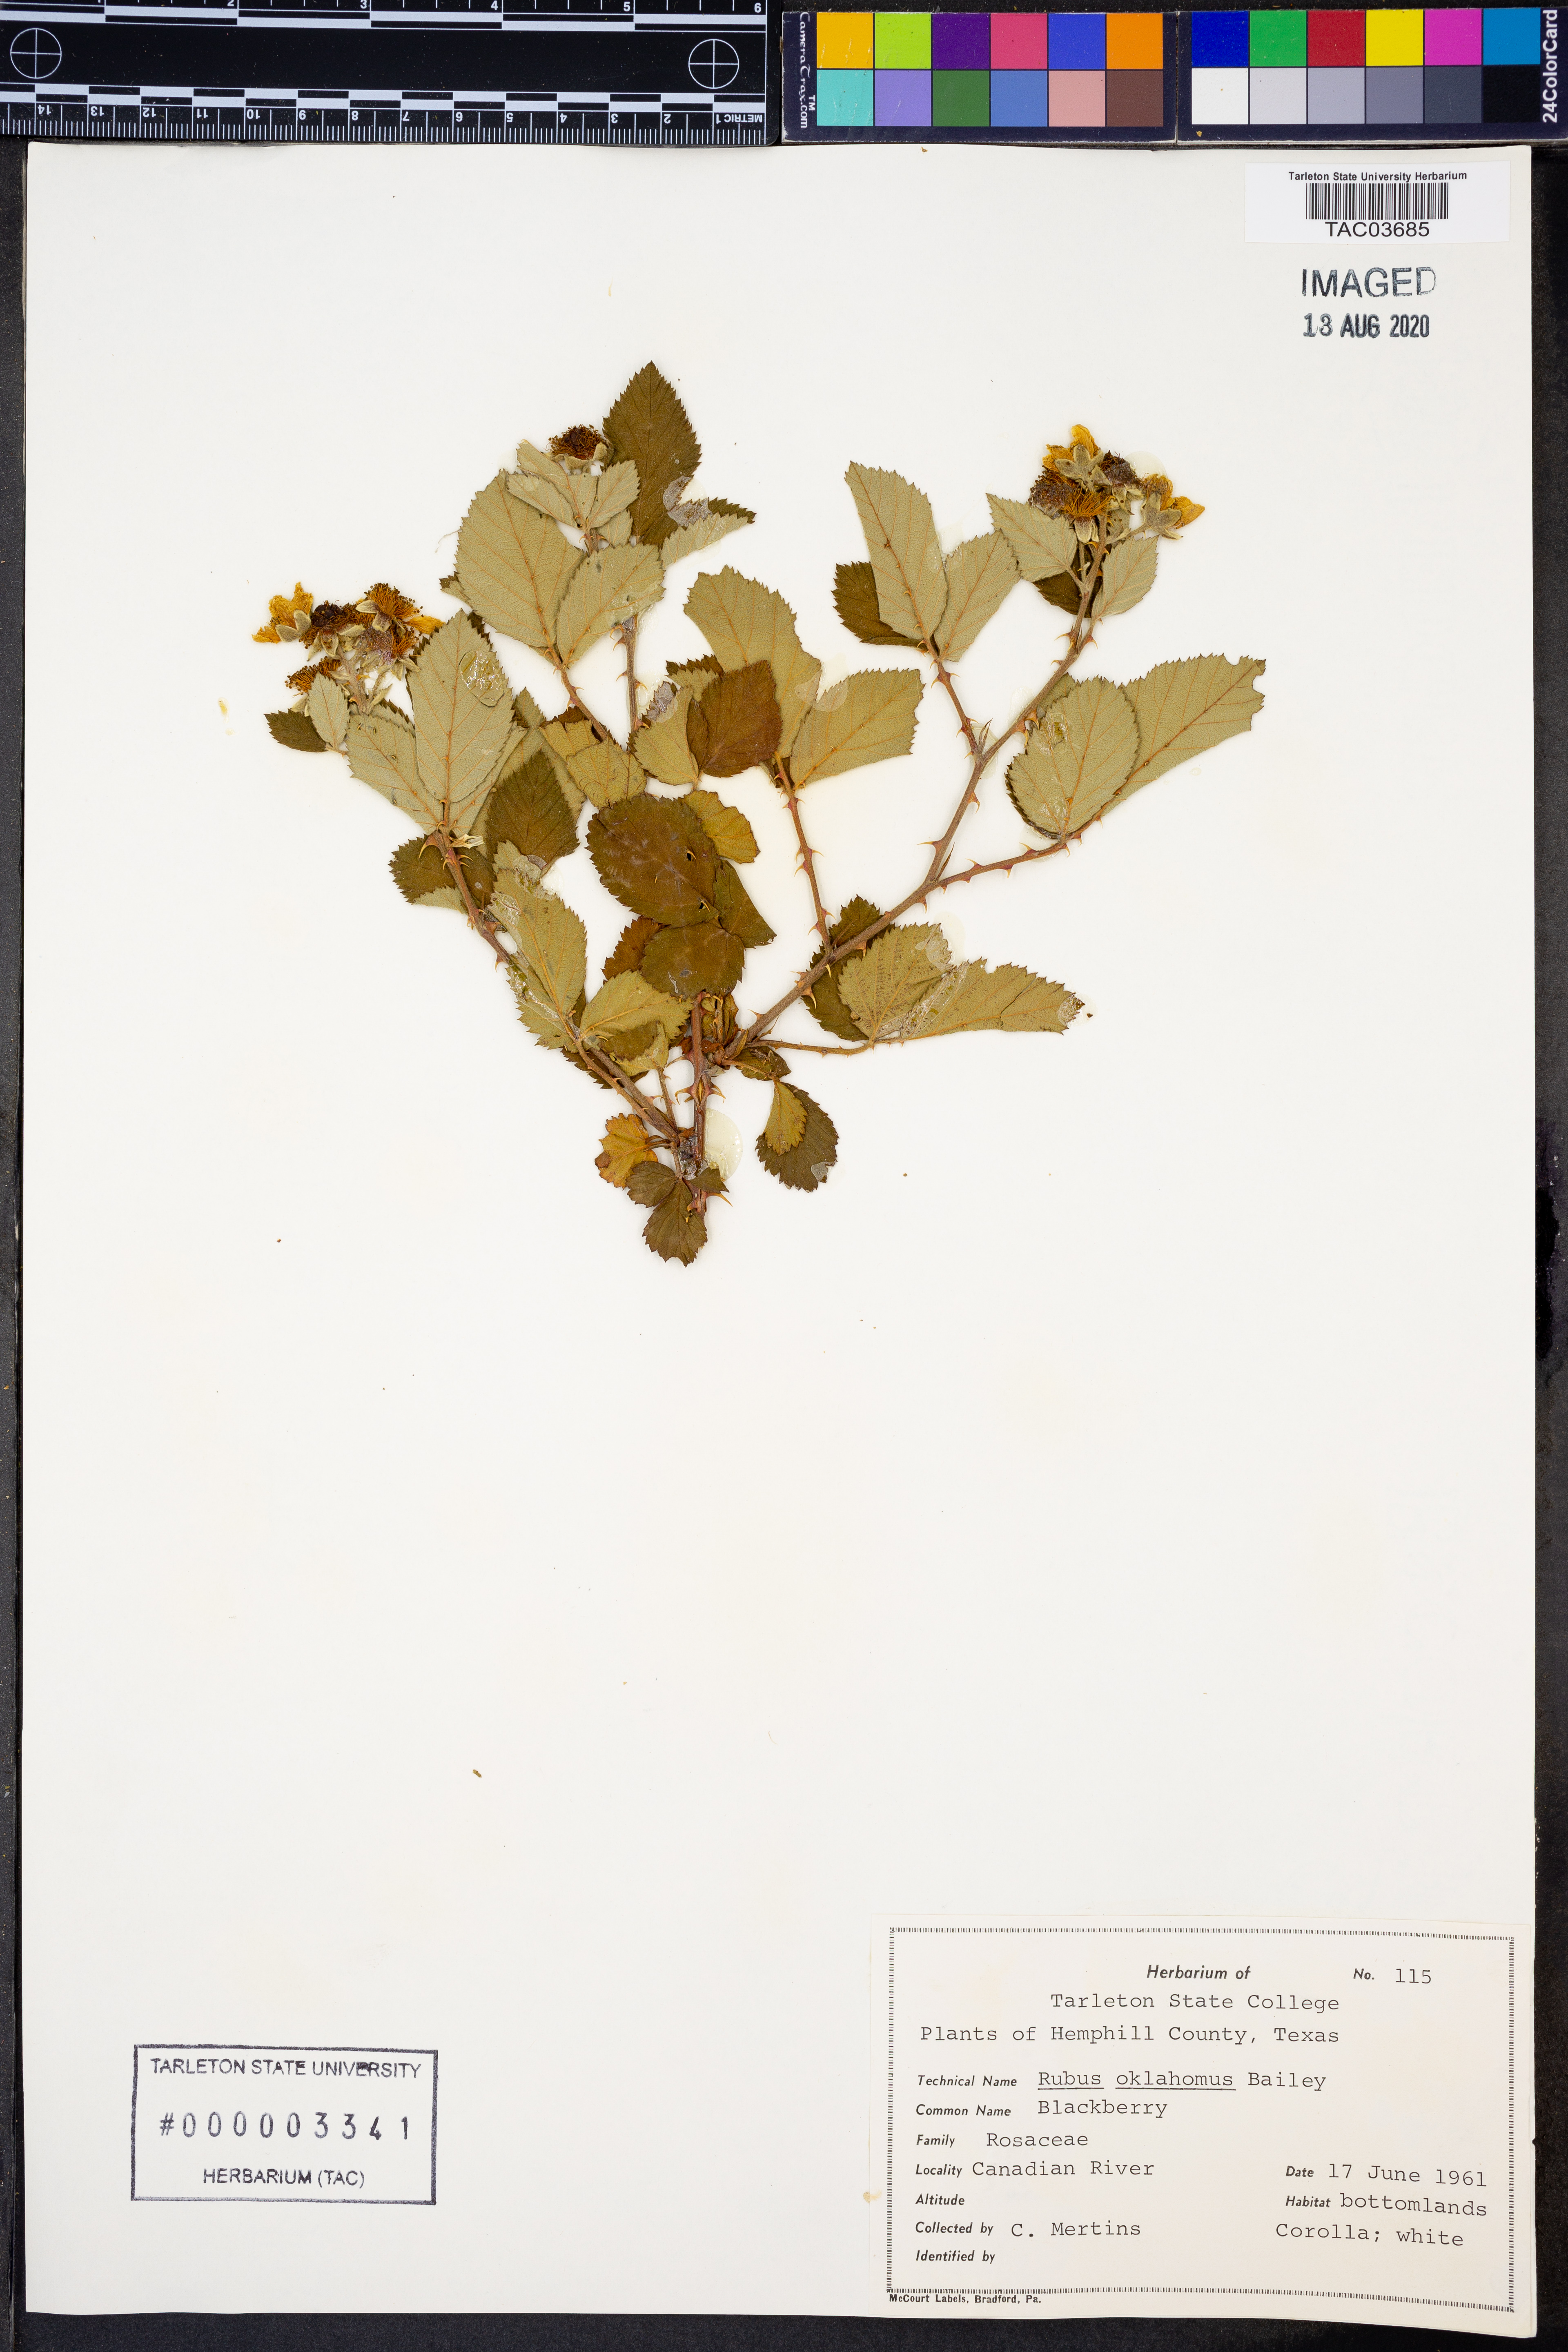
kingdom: Plantae
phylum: Tracheophyta
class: Magnoliopsida
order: Rosales
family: Rosaceae
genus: Rubus
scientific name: Rubus oklahomus
